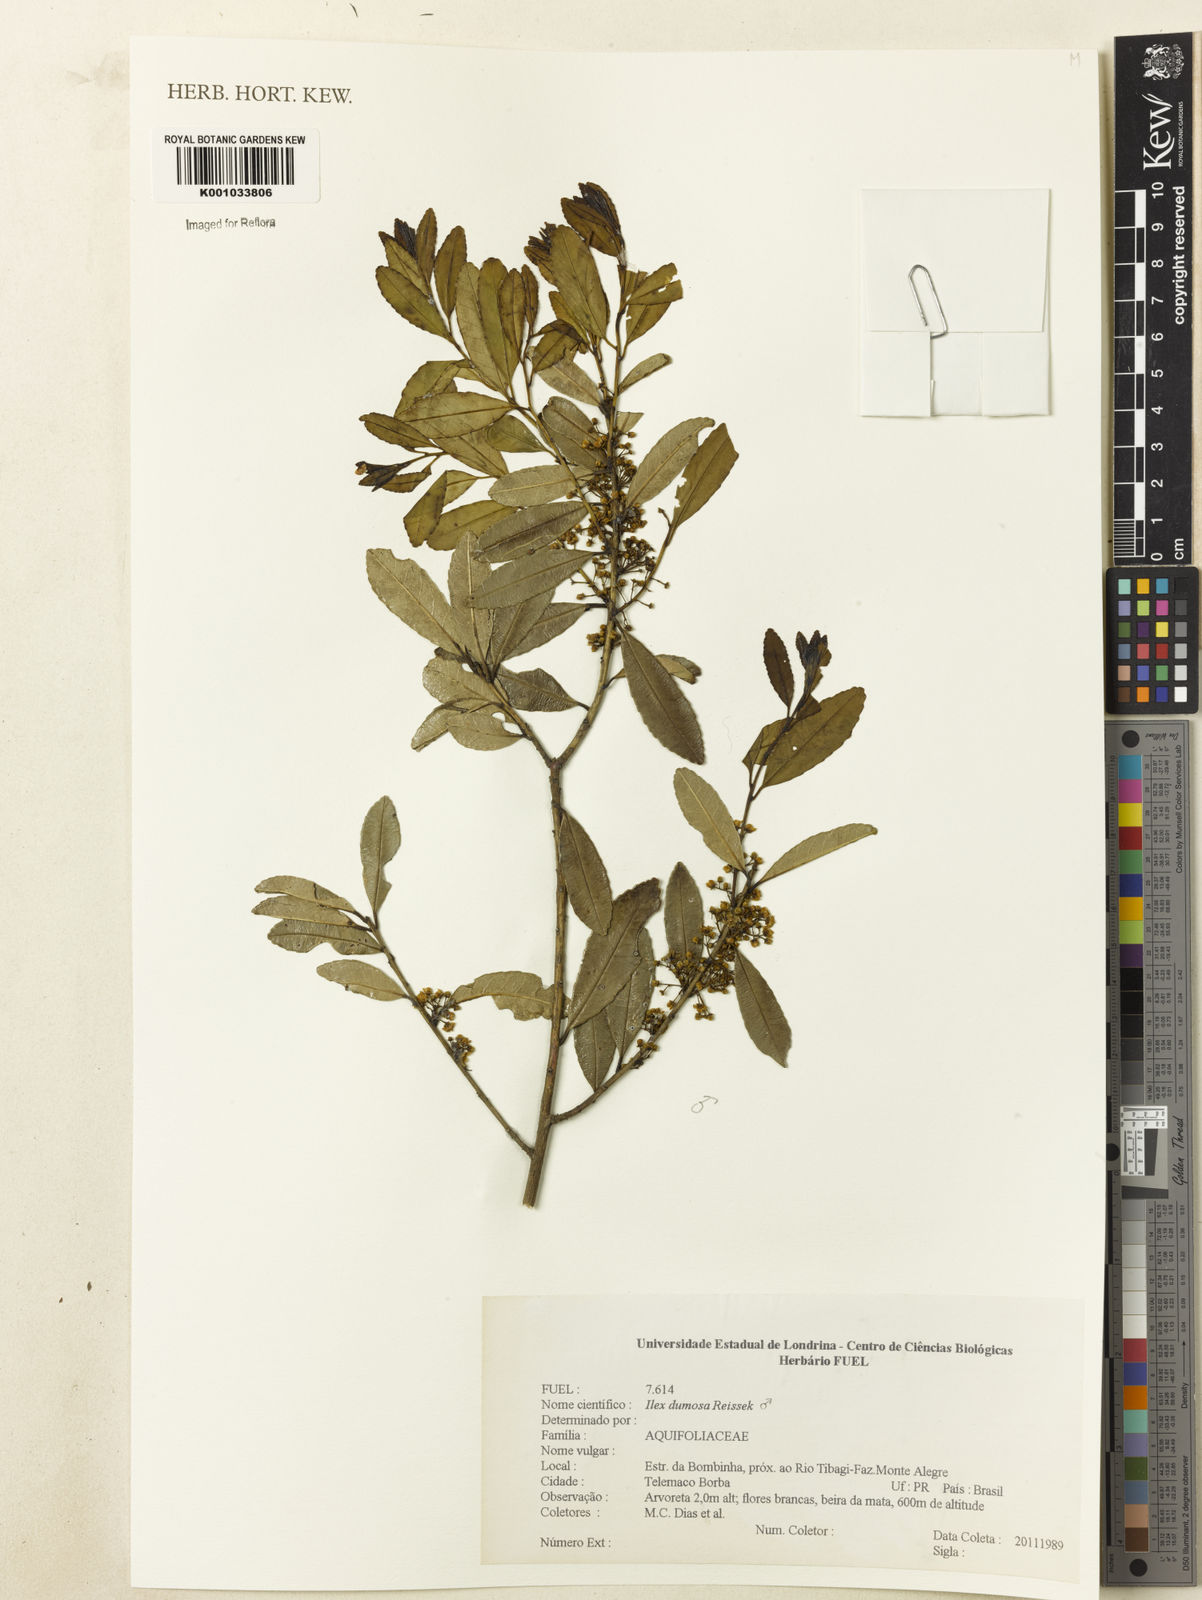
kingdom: Plantae
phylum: Tracheophyta
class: Magnoliopsida
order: Aquifoliales
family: Aquifoliaceae
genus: Ilex
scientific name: Ilex dumosa
